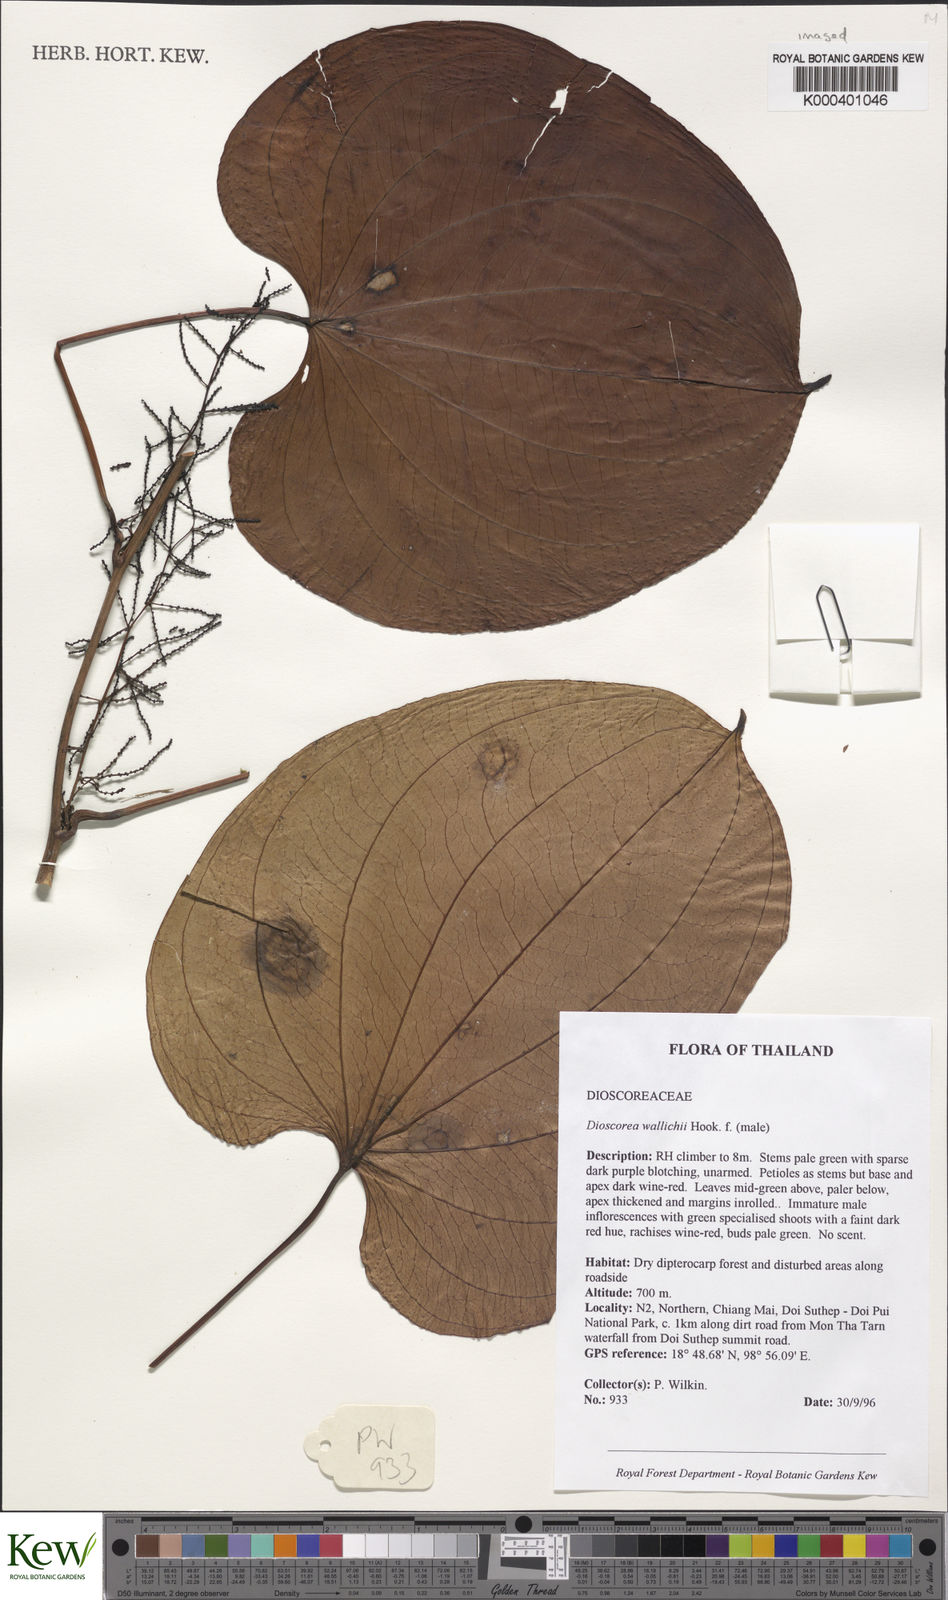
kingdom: Plantae
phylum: Tracheophyta
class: Liliopsida
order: Dioscoreales
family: Dioscoreaceae
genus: Dioscorea
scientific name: Dioscorea wallichii
